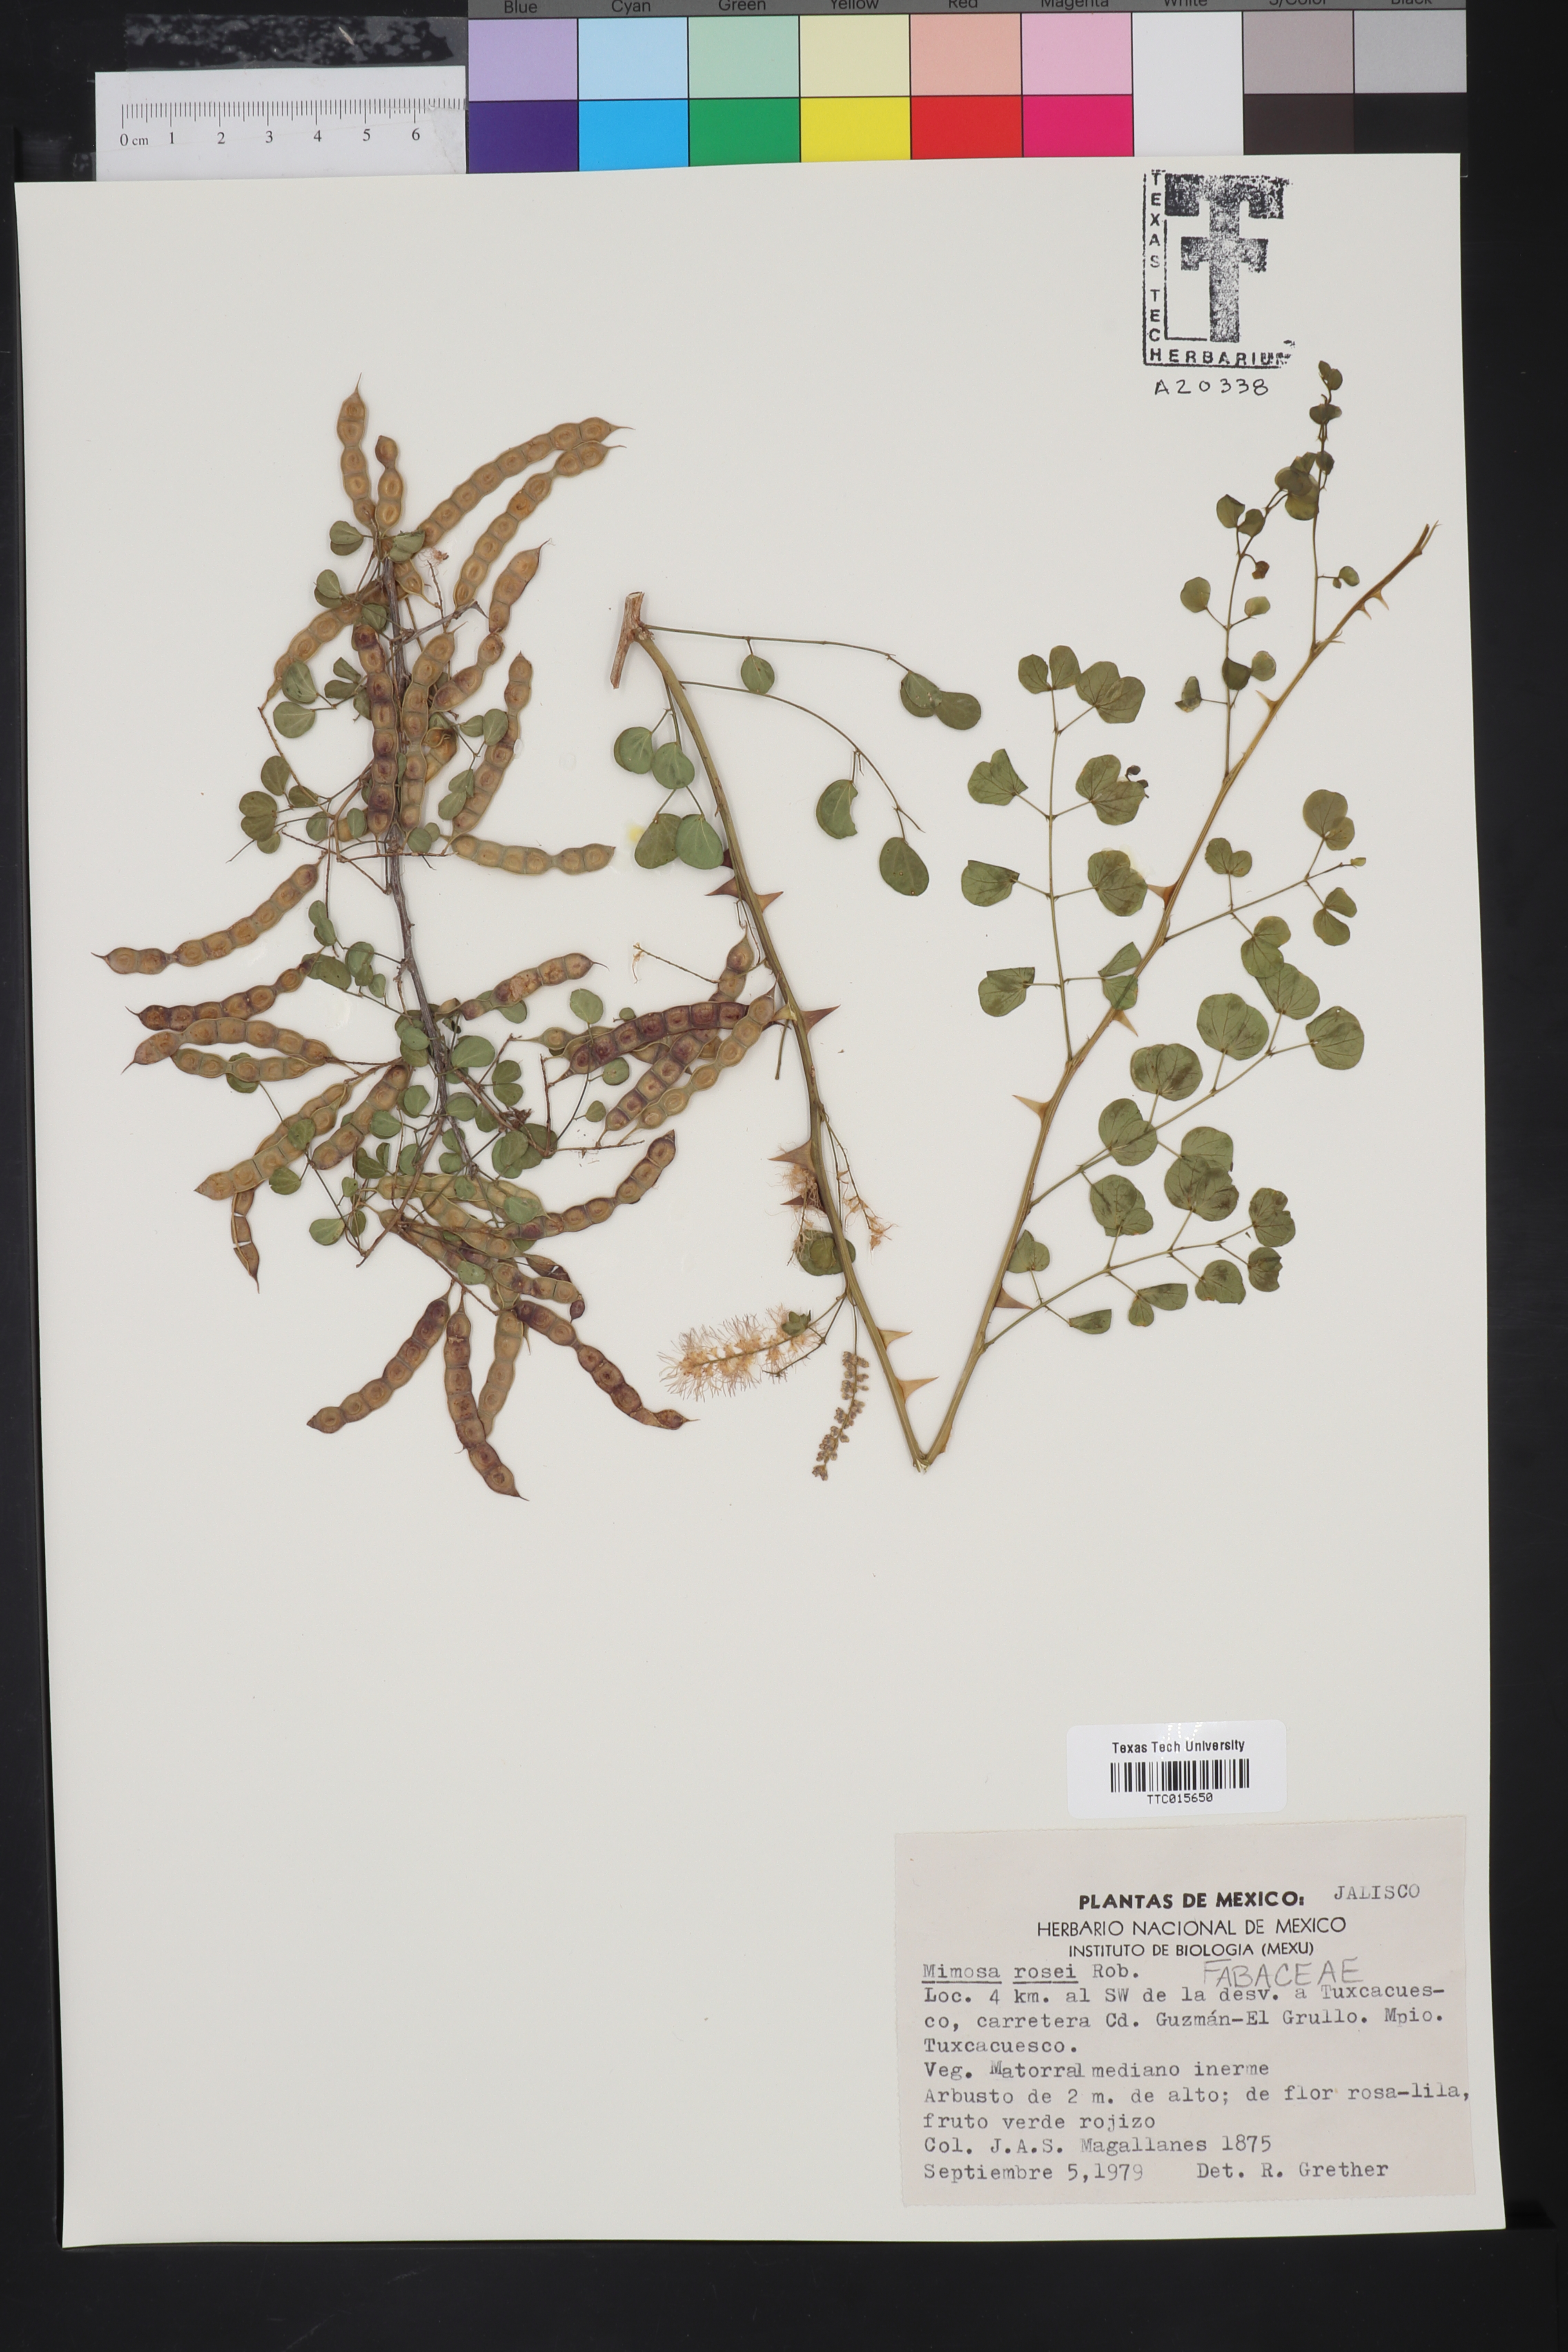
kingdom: Plantae
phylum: Tracheophyta
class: Magnoliopsida
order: Fabales
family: Fabaceae
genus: Mimosa
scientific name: Mimosa rosei
